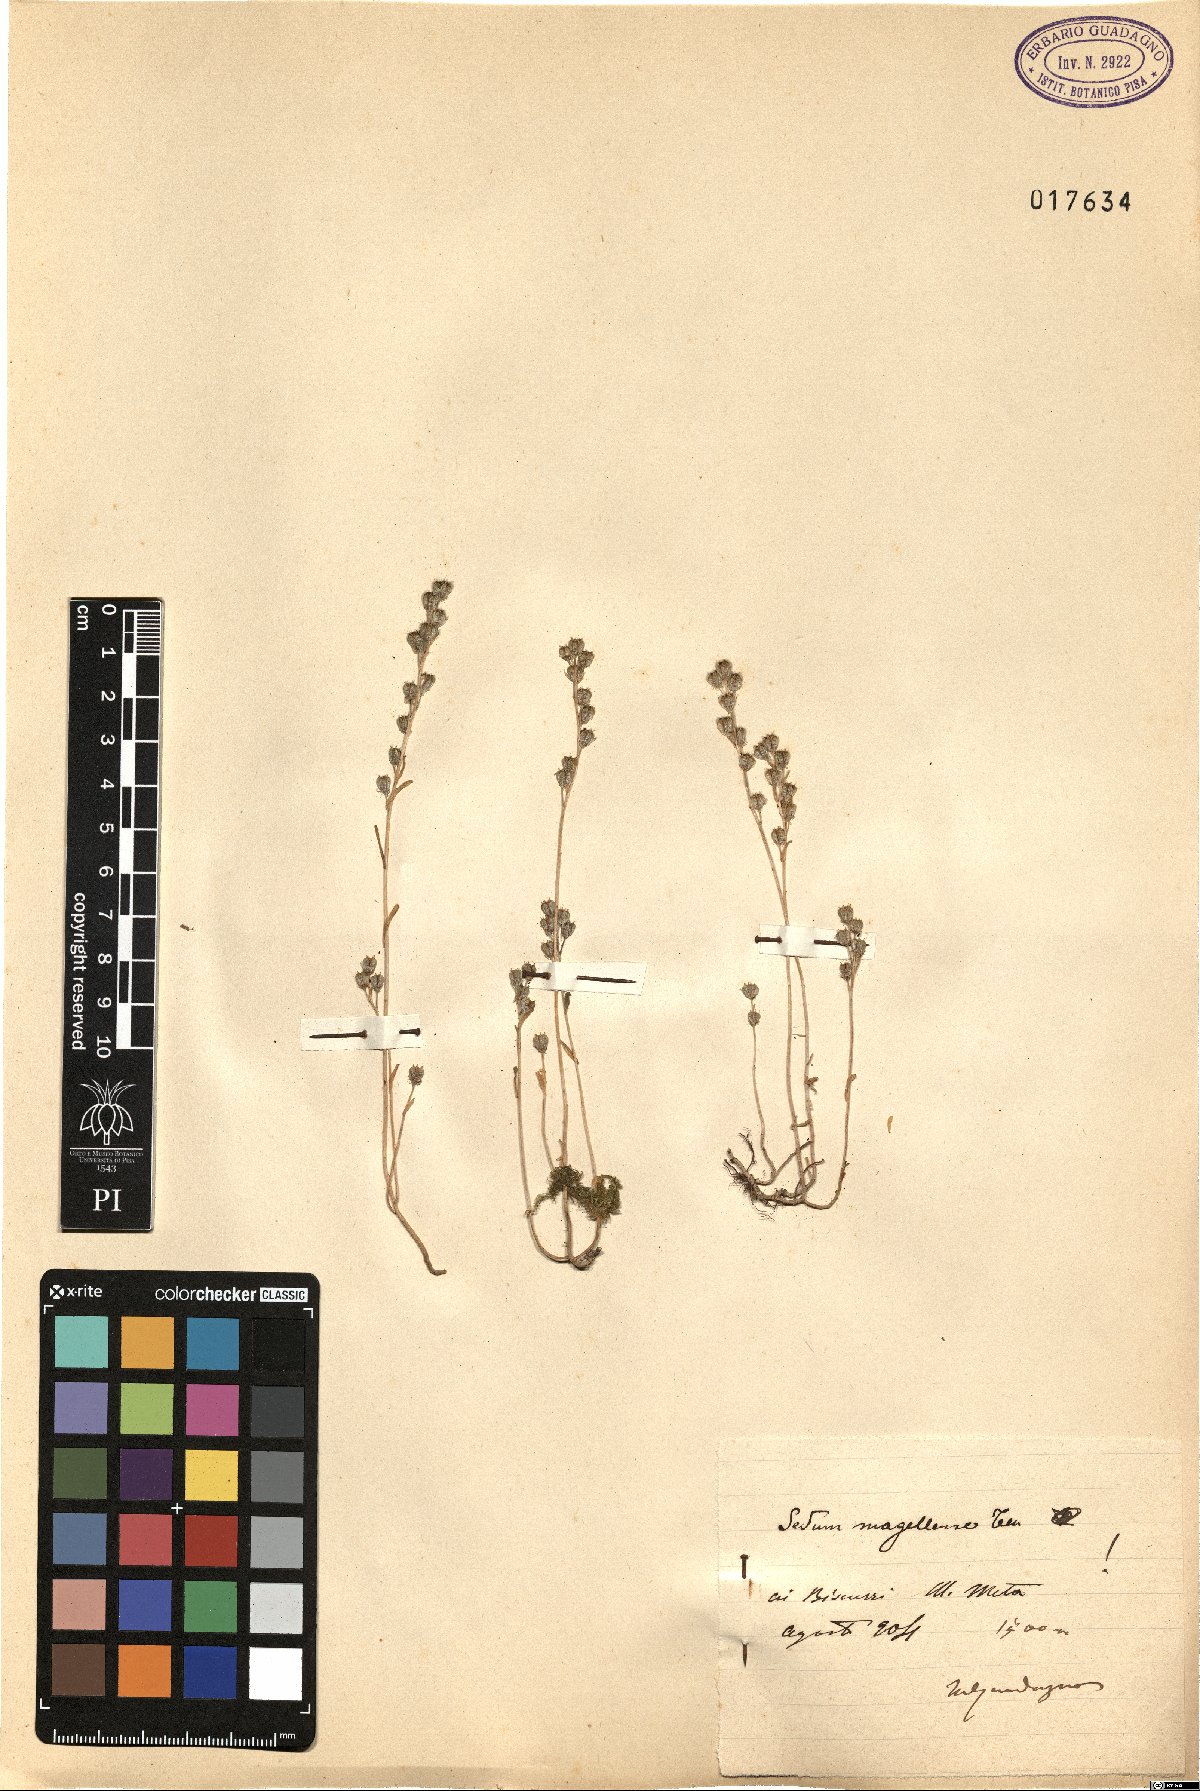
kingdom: Plantae
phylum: Tracheophyta
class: Magnoliopsida
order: Saxifragales
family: Crassulaceae
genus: Sedum
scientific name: Sedum magellense
